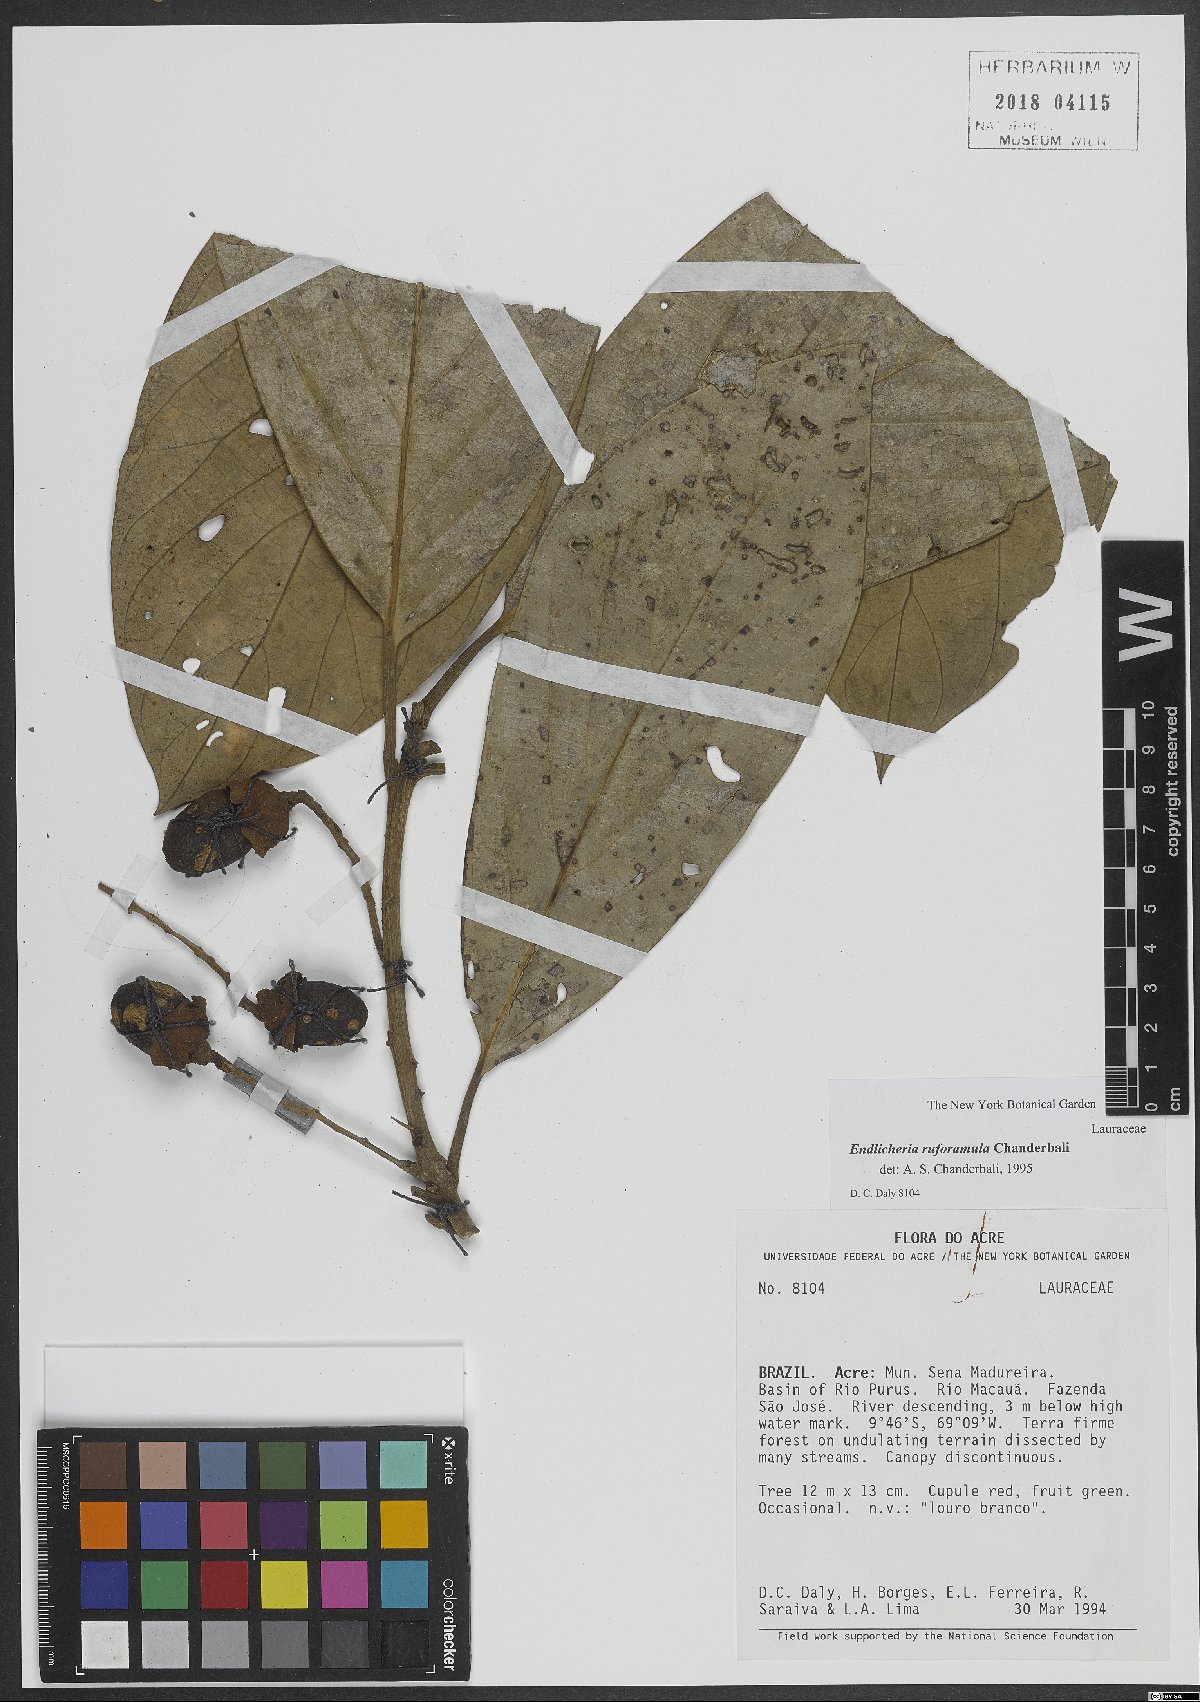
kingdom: Plantae
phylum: Tracheophyta
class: Magnoliopsida
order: Laurales
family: Lauraceae
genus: Endlicheria
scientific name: Endlicheria ruforamula
